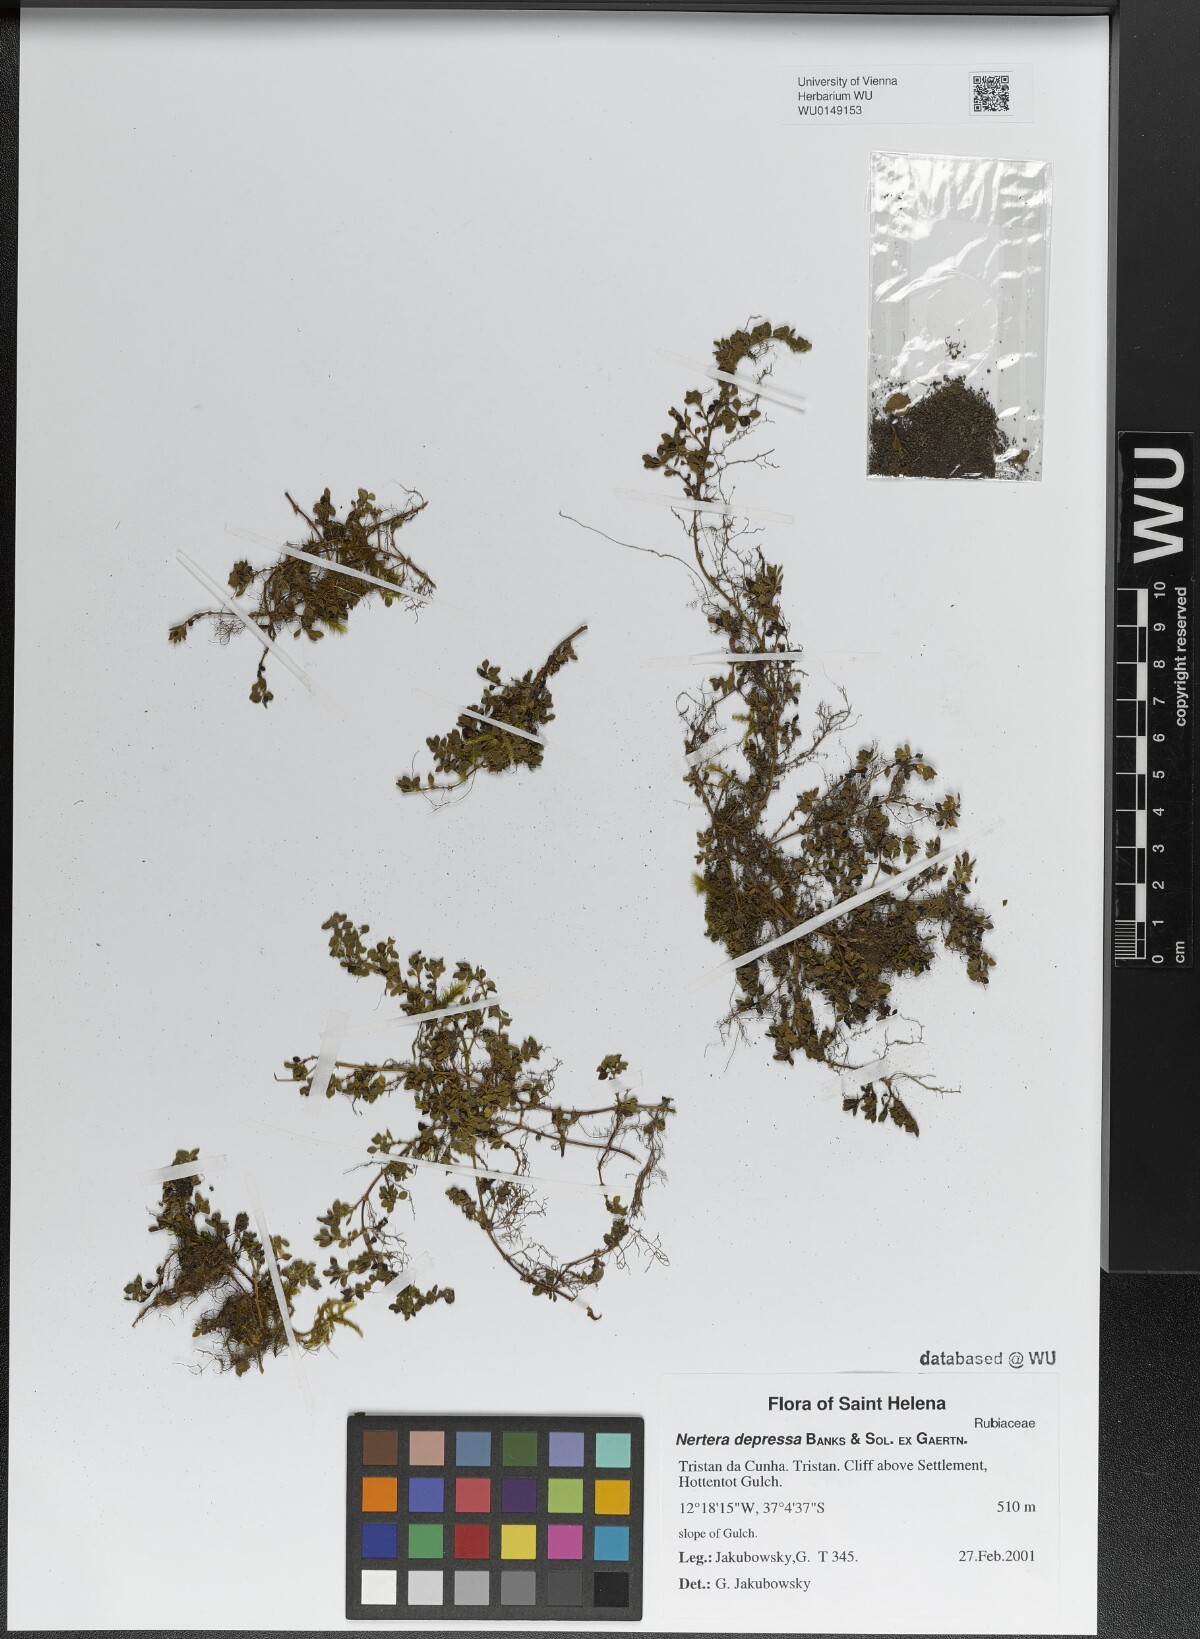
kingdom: Plantae
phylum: Tracheophyta
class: Magnoliopsida
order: Gentianales
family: Rubiaceae
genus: Nertera
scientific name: Nertera granadensis
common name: Beadplant
